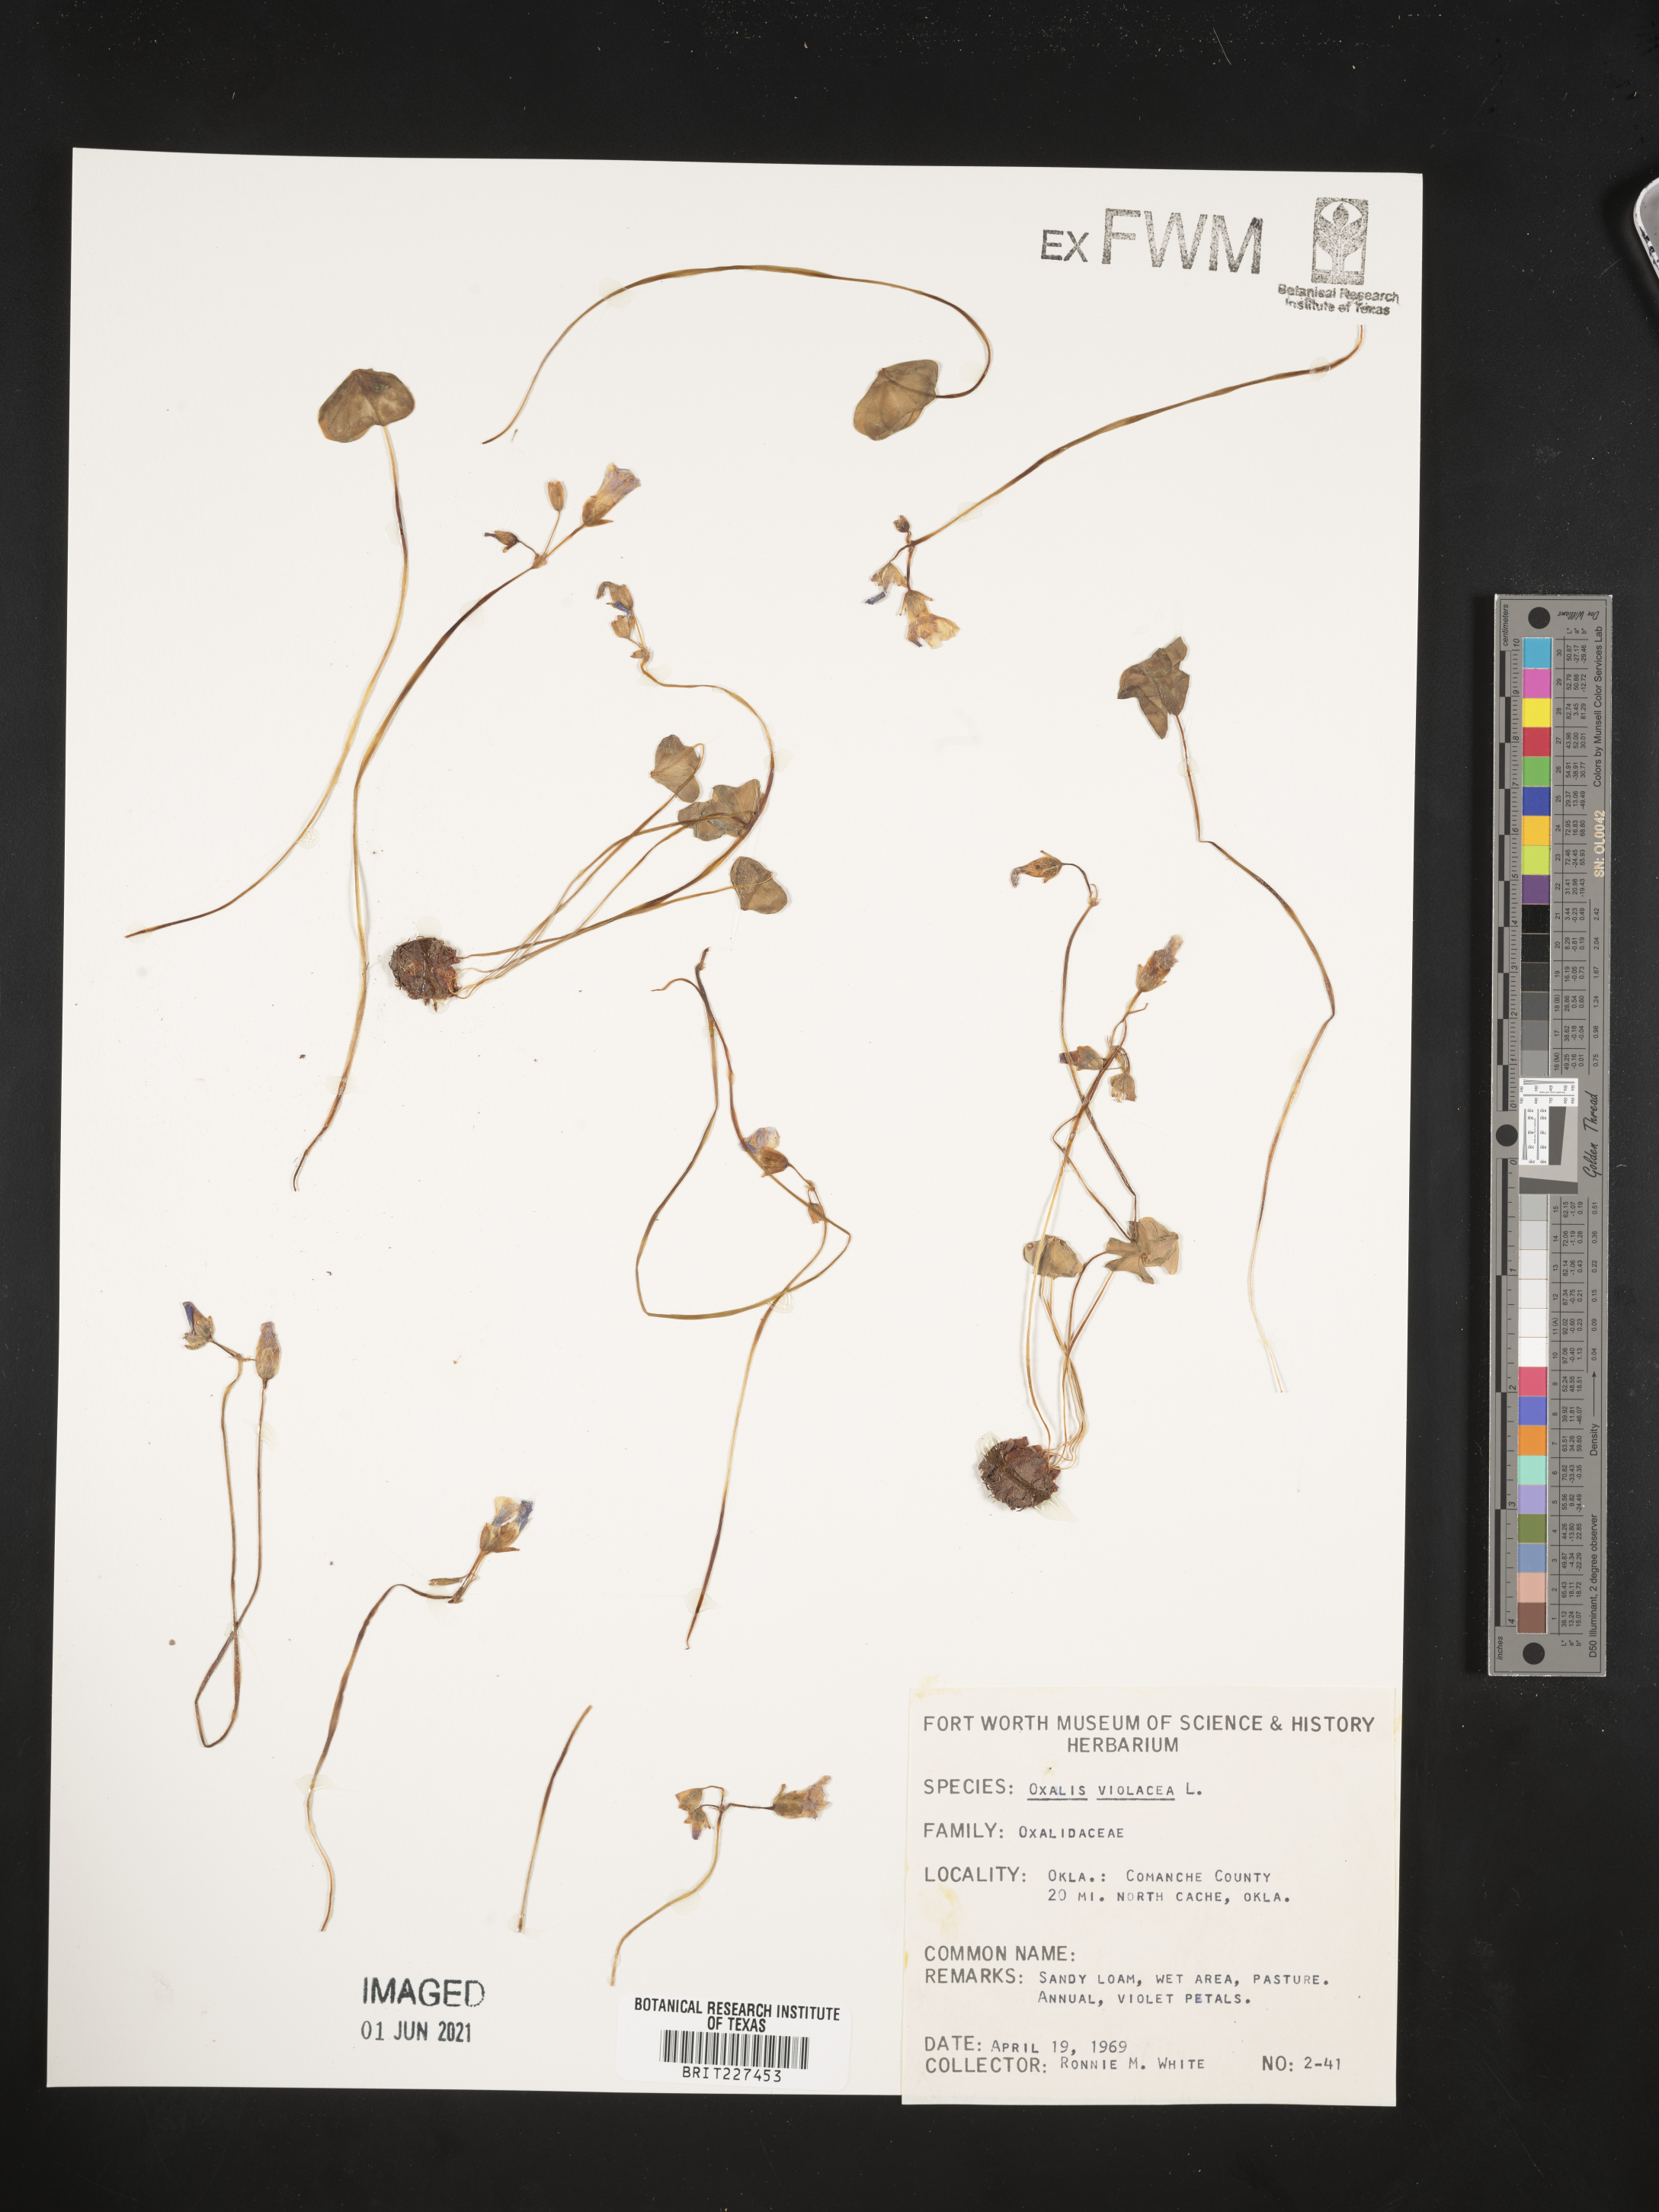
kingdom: Plantae
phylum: Tracheophyta
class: Magnoliopsida
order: Oxalidales
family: Oxalidaceae
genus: Oxalis
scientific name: Oxalis violacea
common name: Violet wood-sorrel
